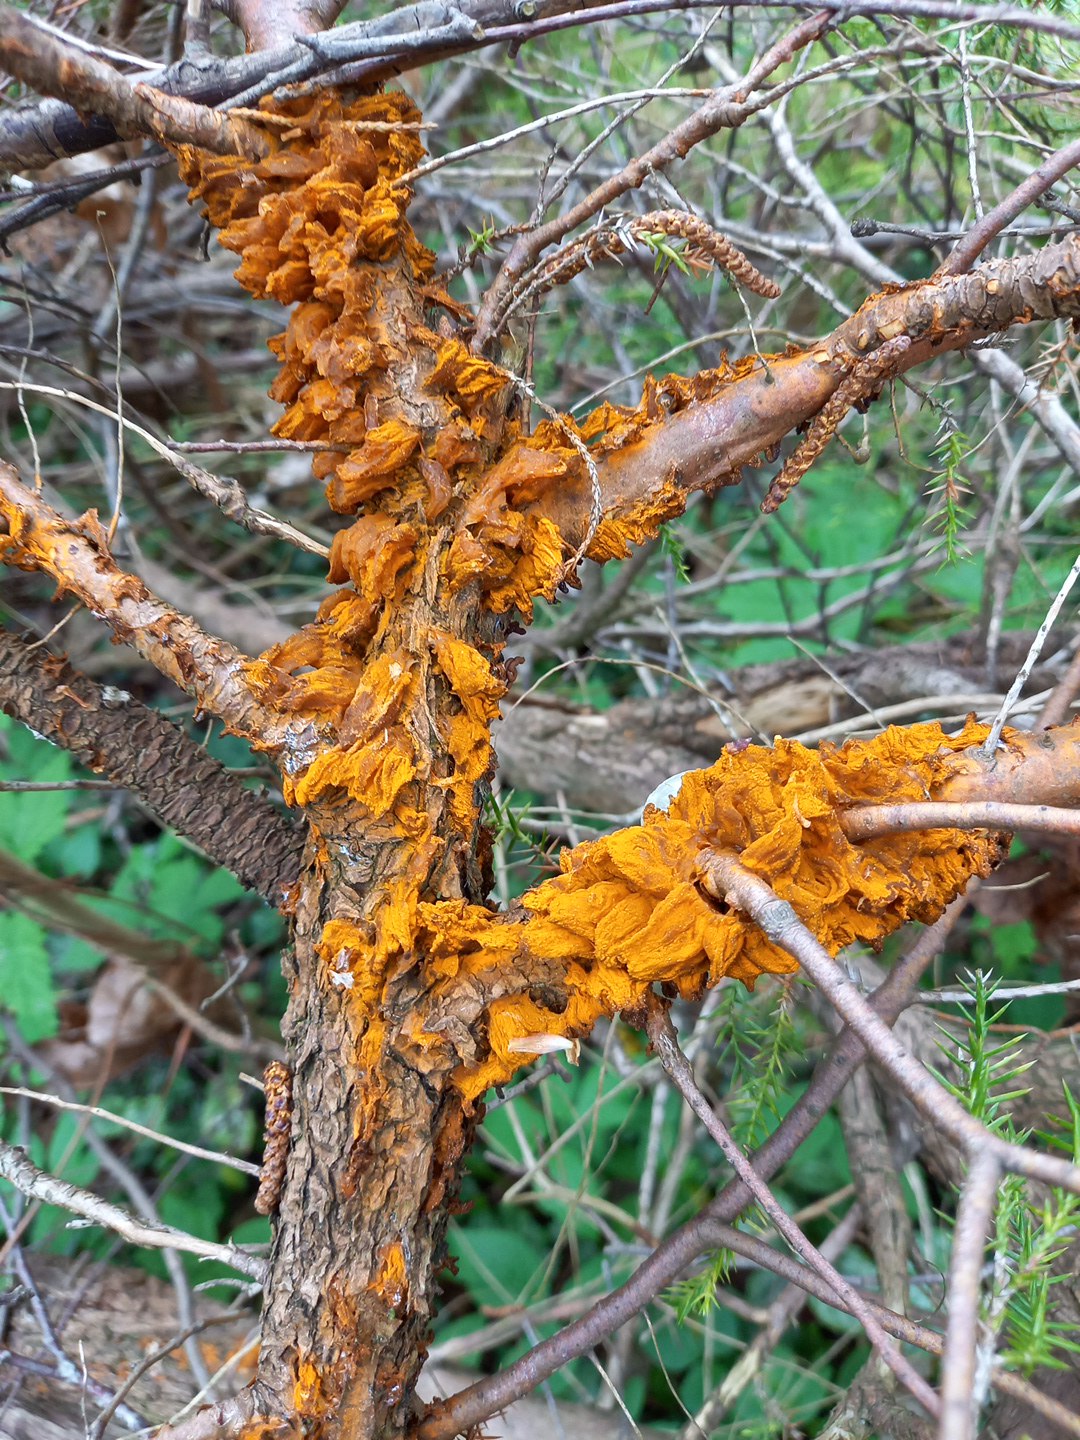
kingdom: Fungi
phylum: Basidiomycota
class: Pucciniomycetes
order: Pucciniales
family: Gymnosporangiaceae
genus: Gymnosporangium
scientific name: Gymnosporangium clavariiforme
